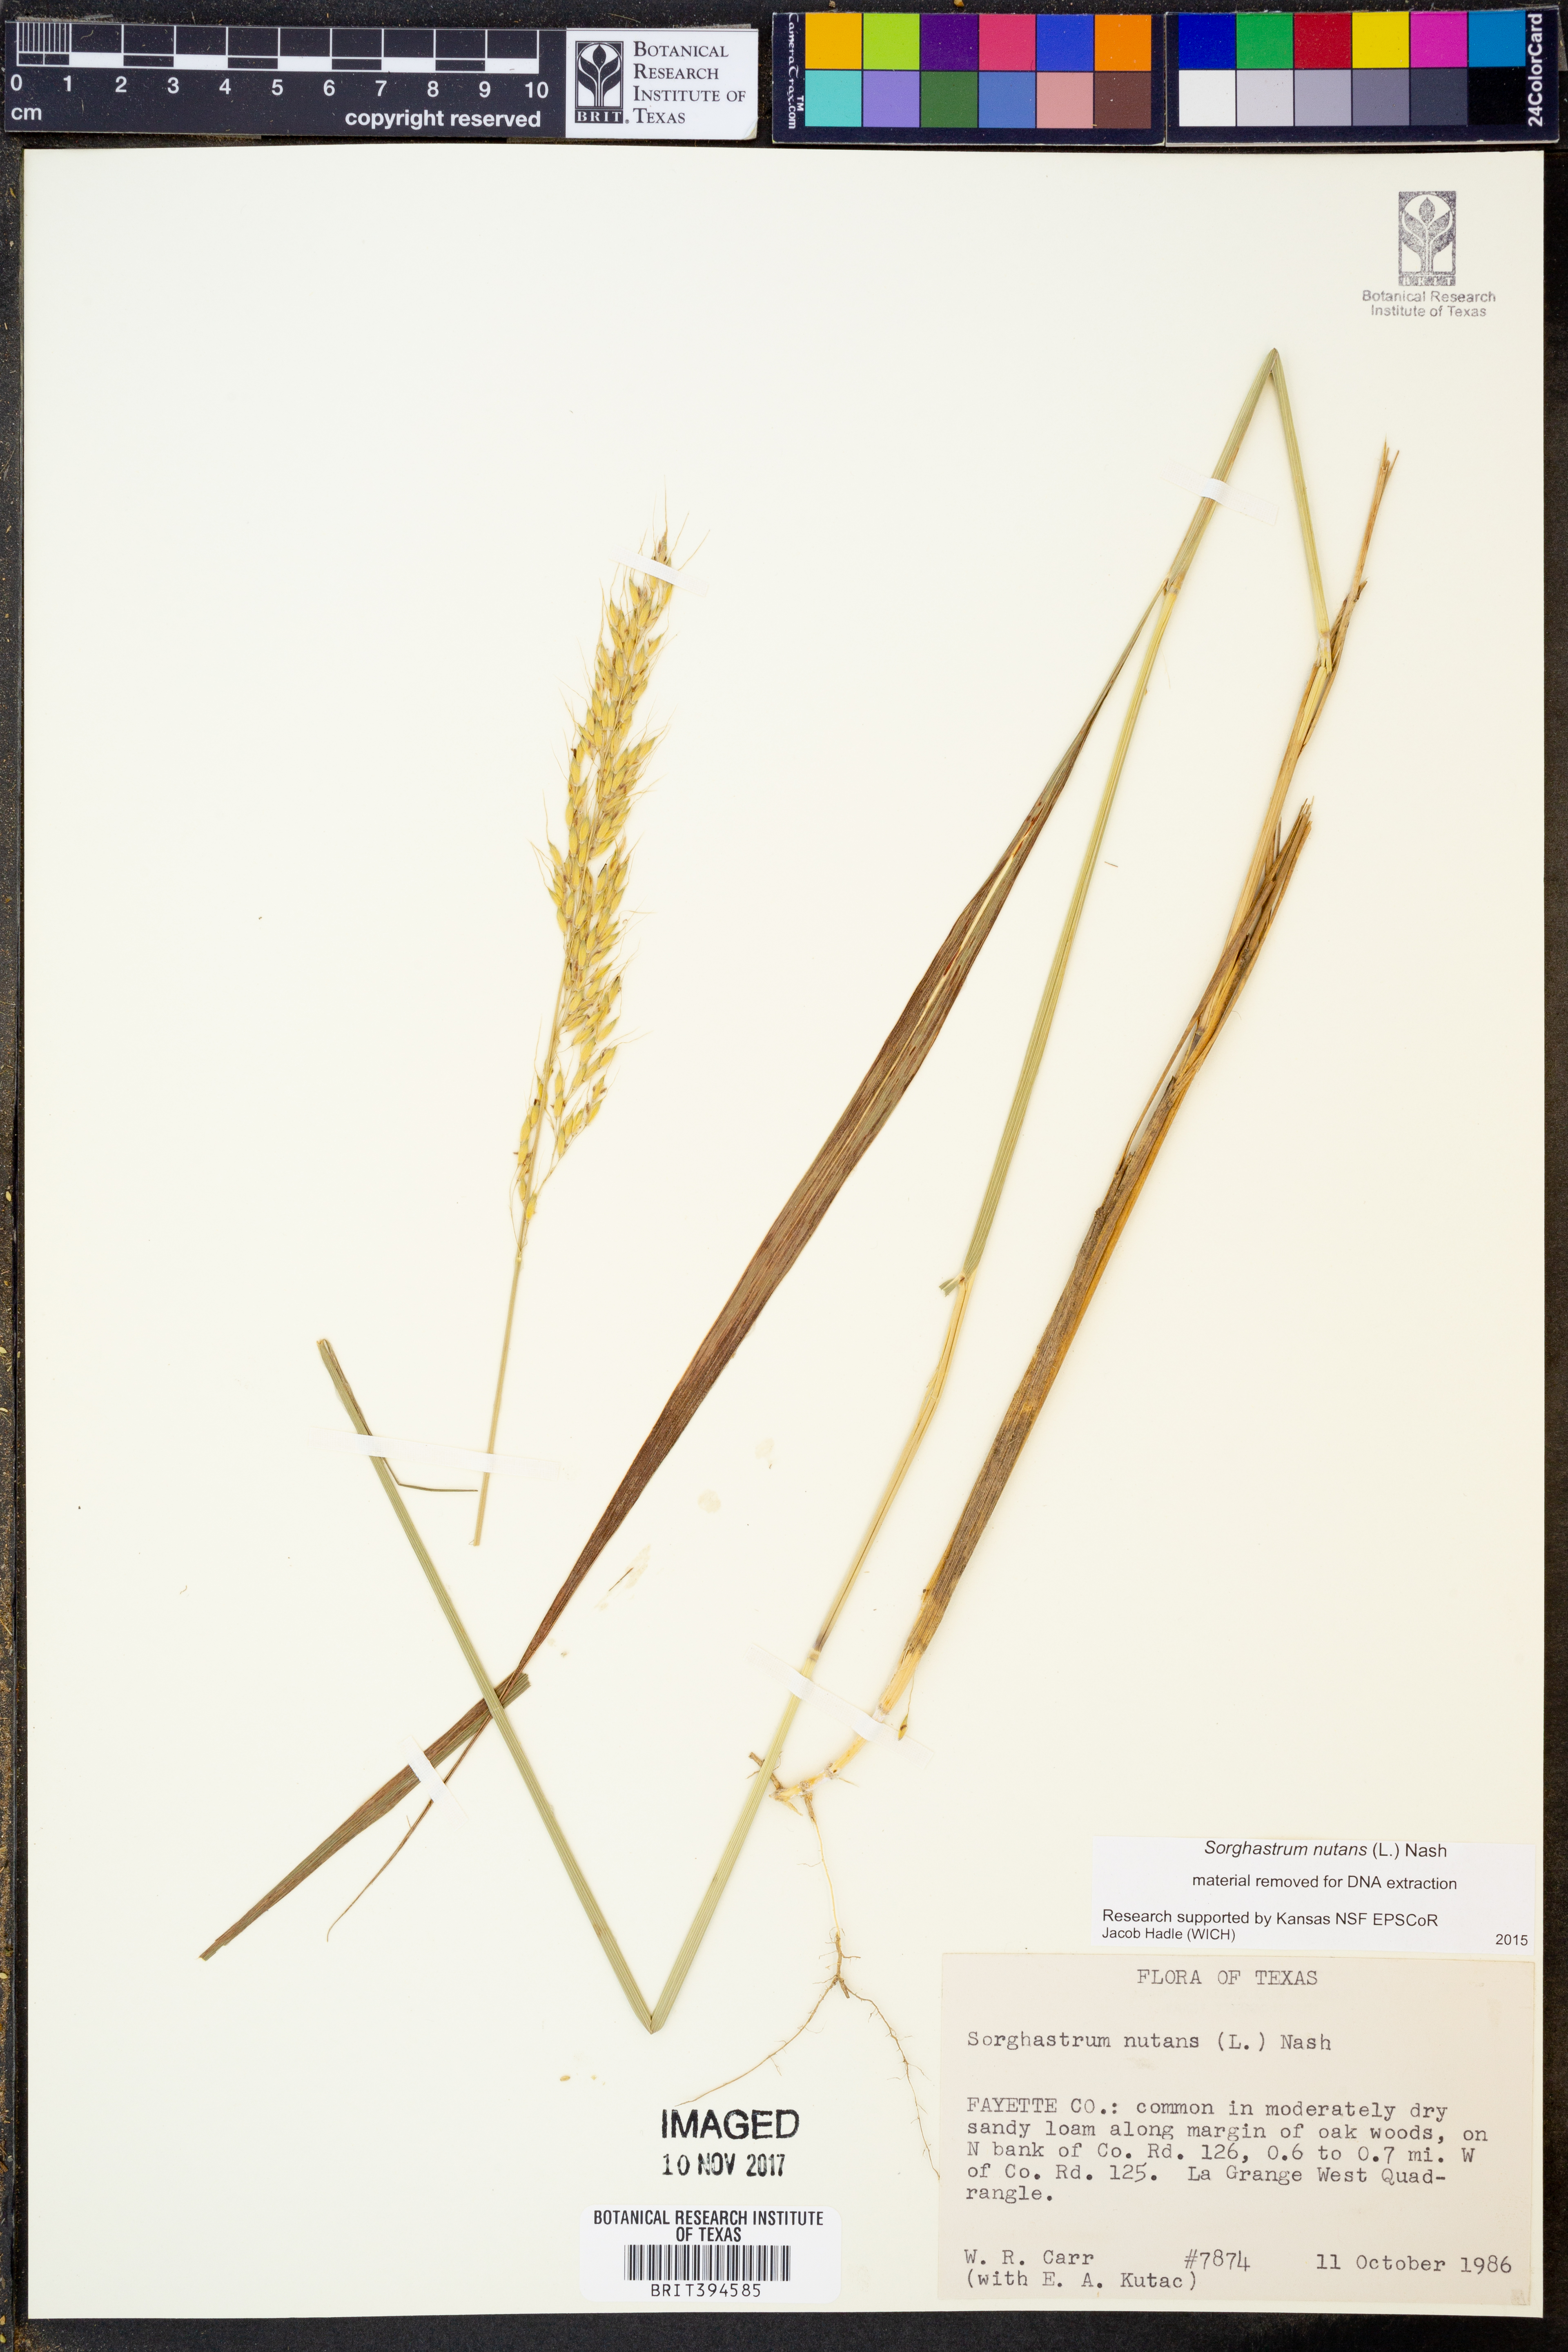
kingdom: Plantae
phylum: Tracheophyta
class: Liliopsida
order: Poales
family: Poaceae
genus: Sorghastrum
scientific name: Sorghastrum nutans
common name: Indian grass
